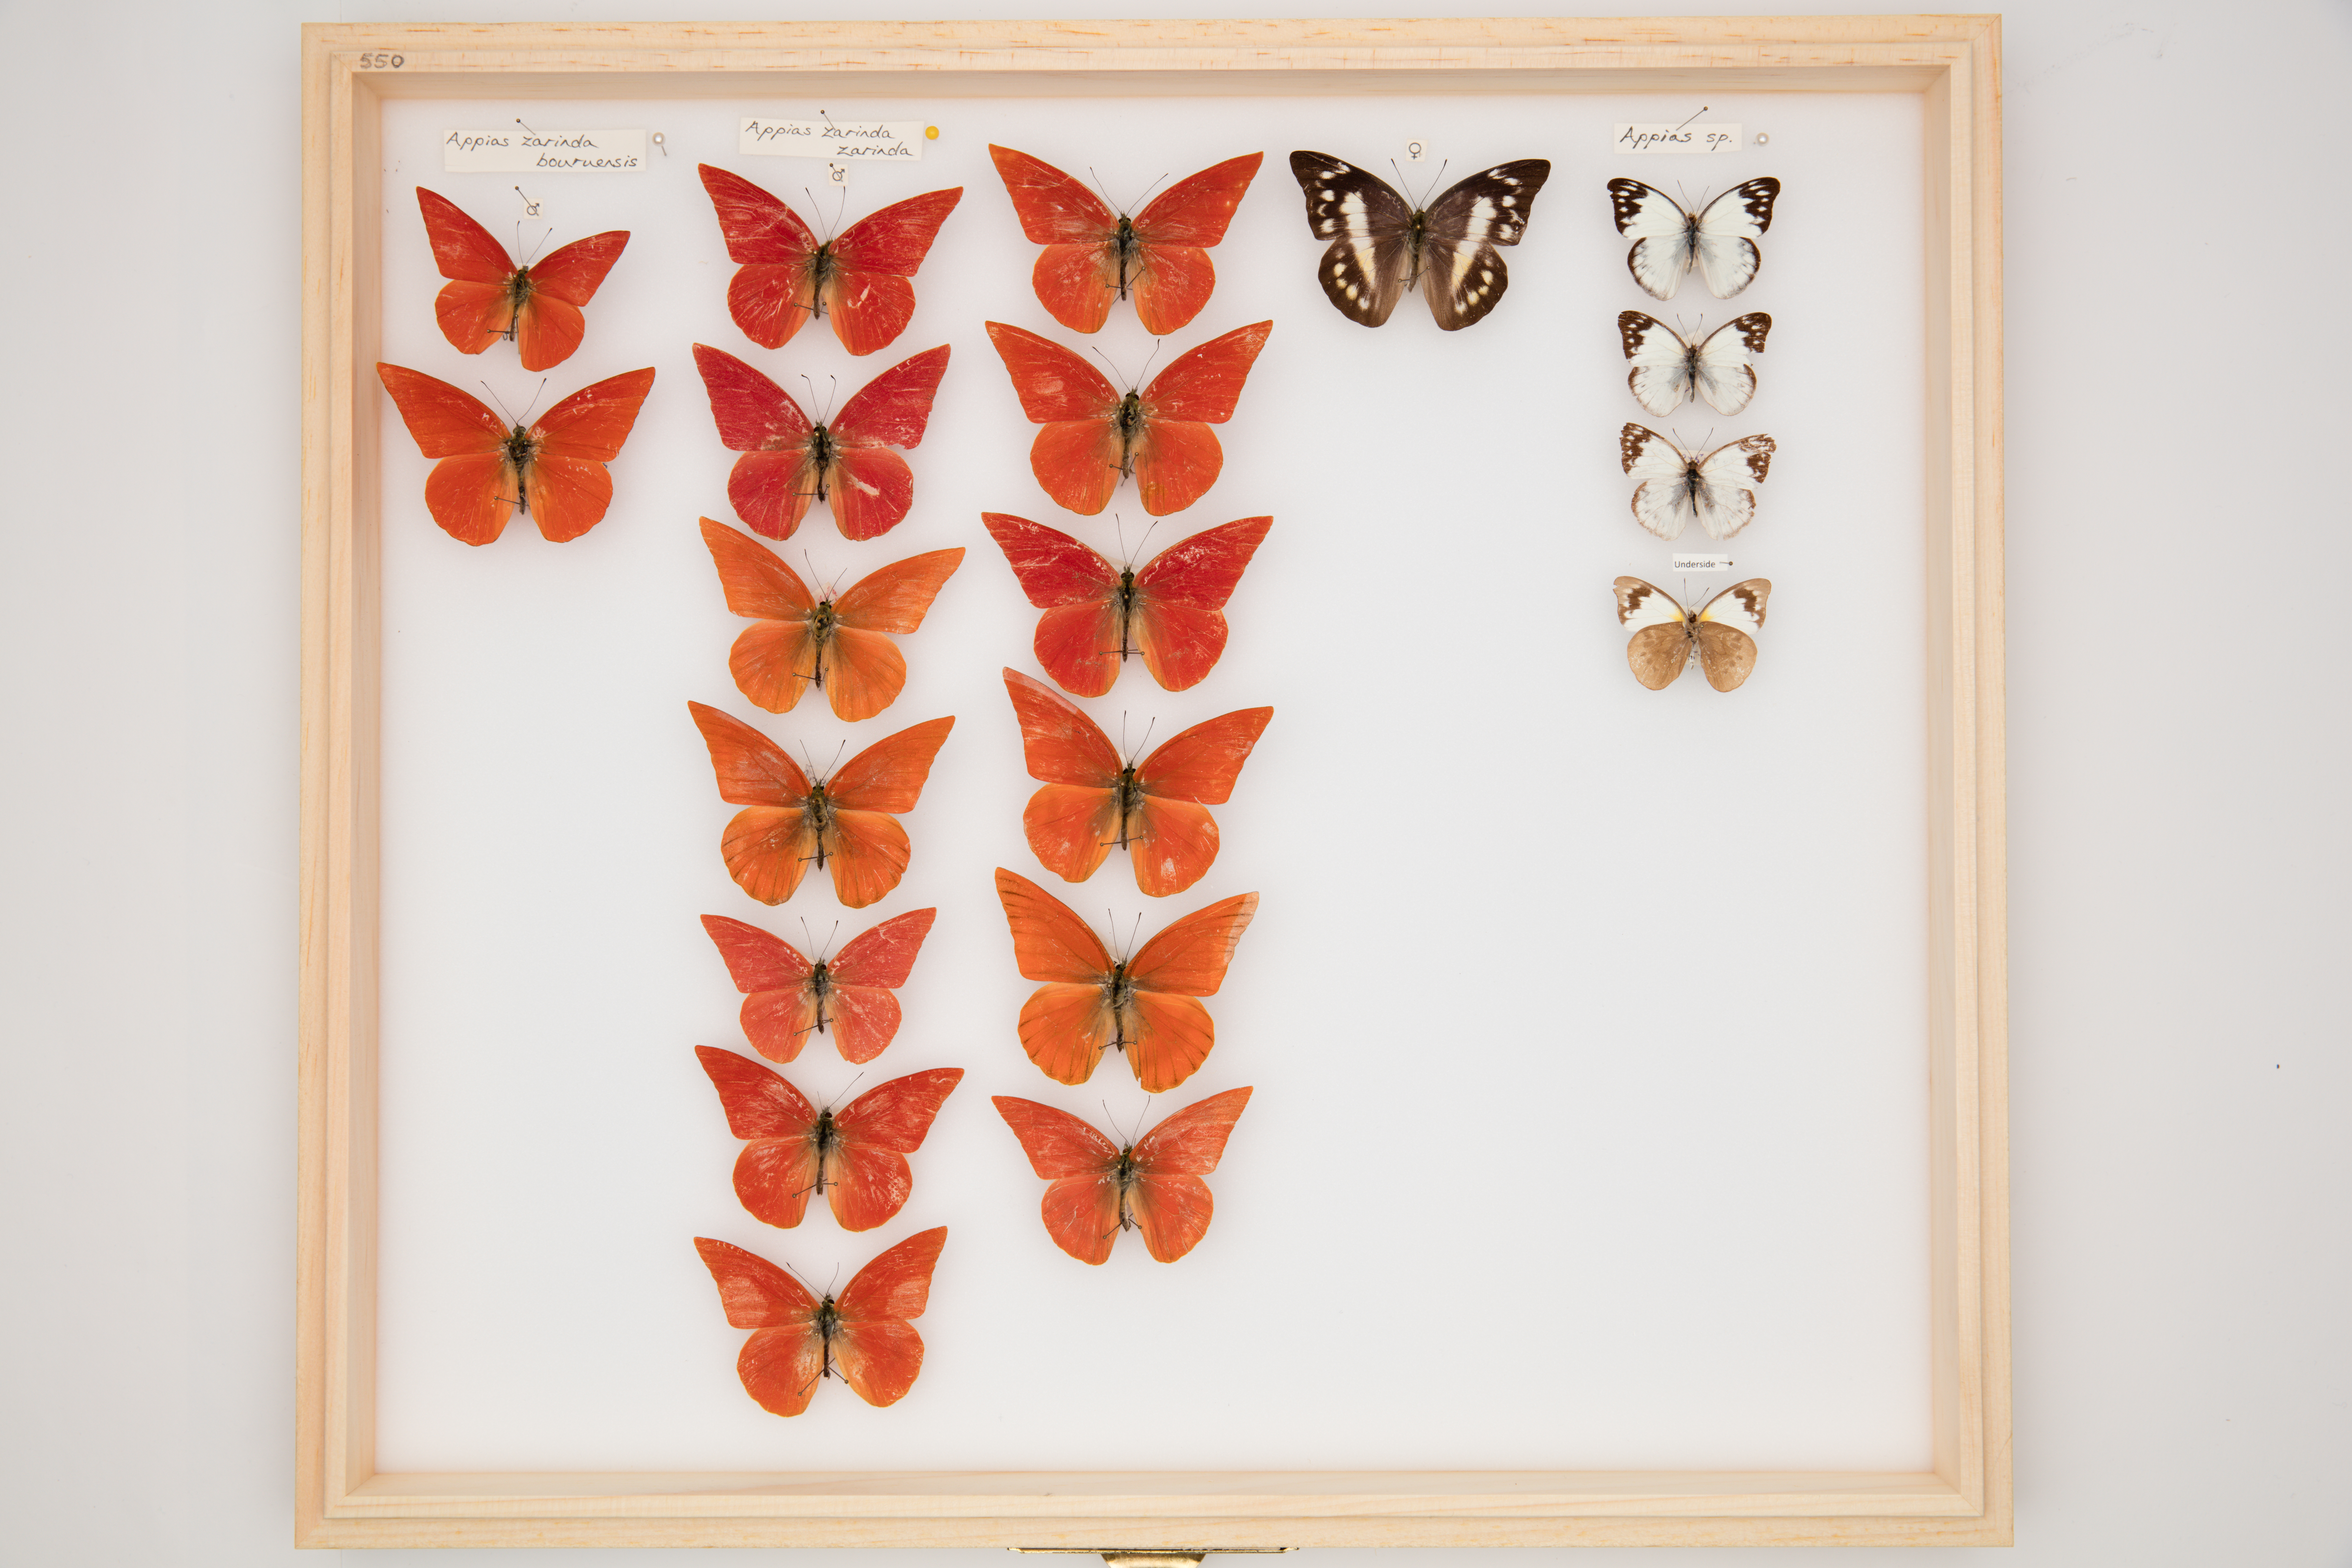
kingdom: Animalia
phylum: Arthropoda
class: Insecta
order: Lepidoptera
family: Pieridae
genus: Appias
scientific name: Appias zarinda
